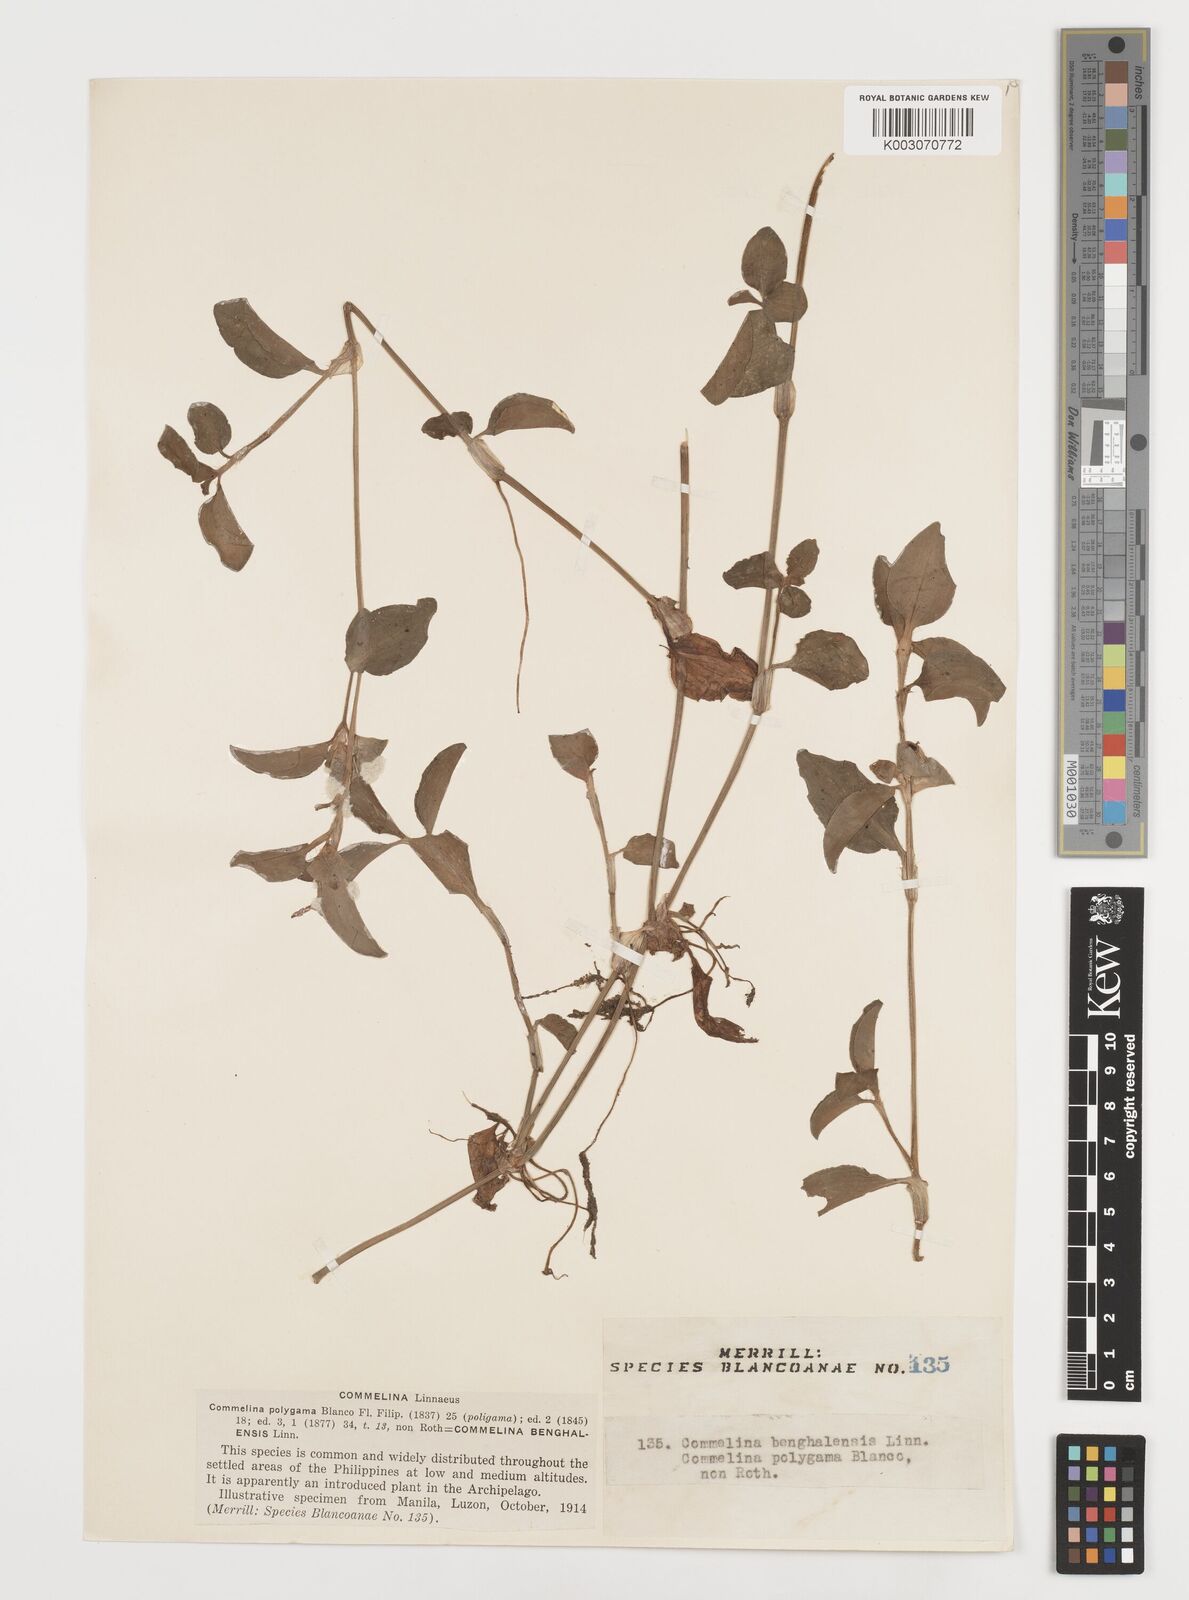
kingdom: Plantae
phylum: Tracheophyta
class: Liliopsida
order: Commelinales
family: Commelinaceae
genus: Commelina
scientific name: Commelina benghalensis
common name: Jio
